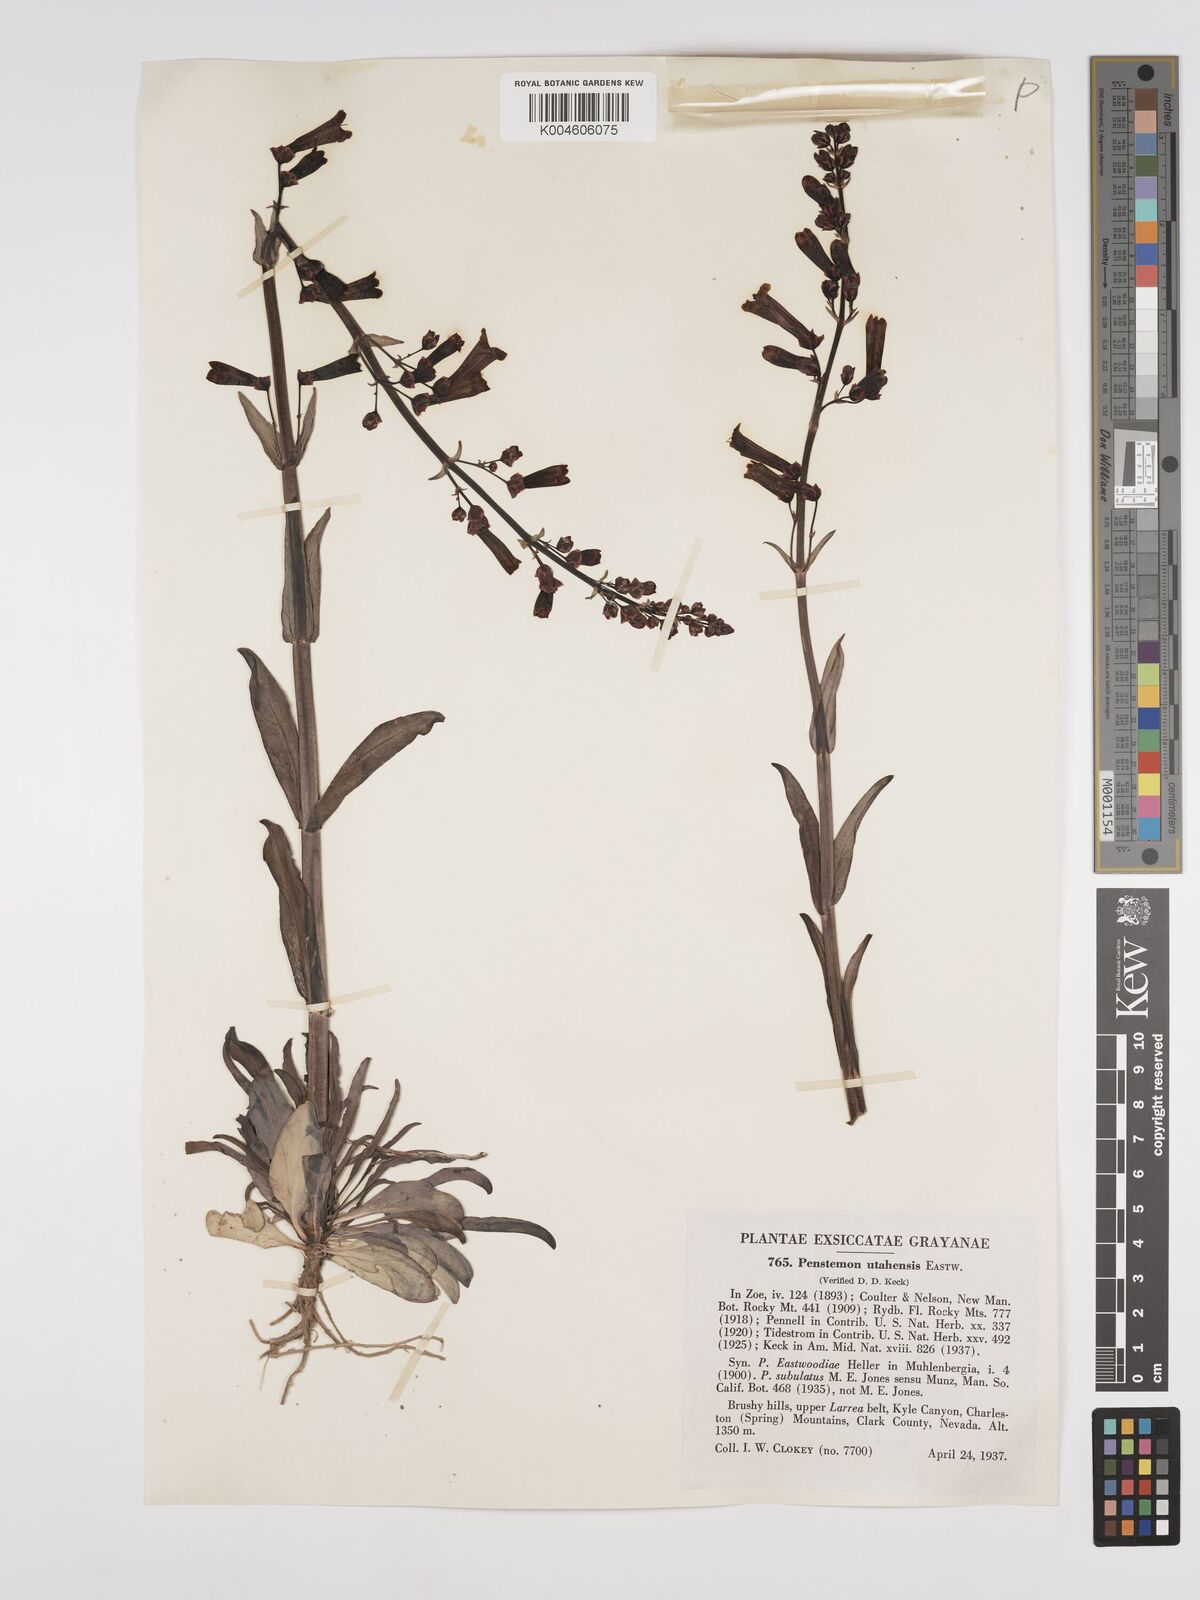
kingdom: Plantae
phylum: Tracheophyta
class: Magnoliopsida
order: Lamiales
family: Plantaginaceae
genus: Penstemon
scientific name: Penstemon
